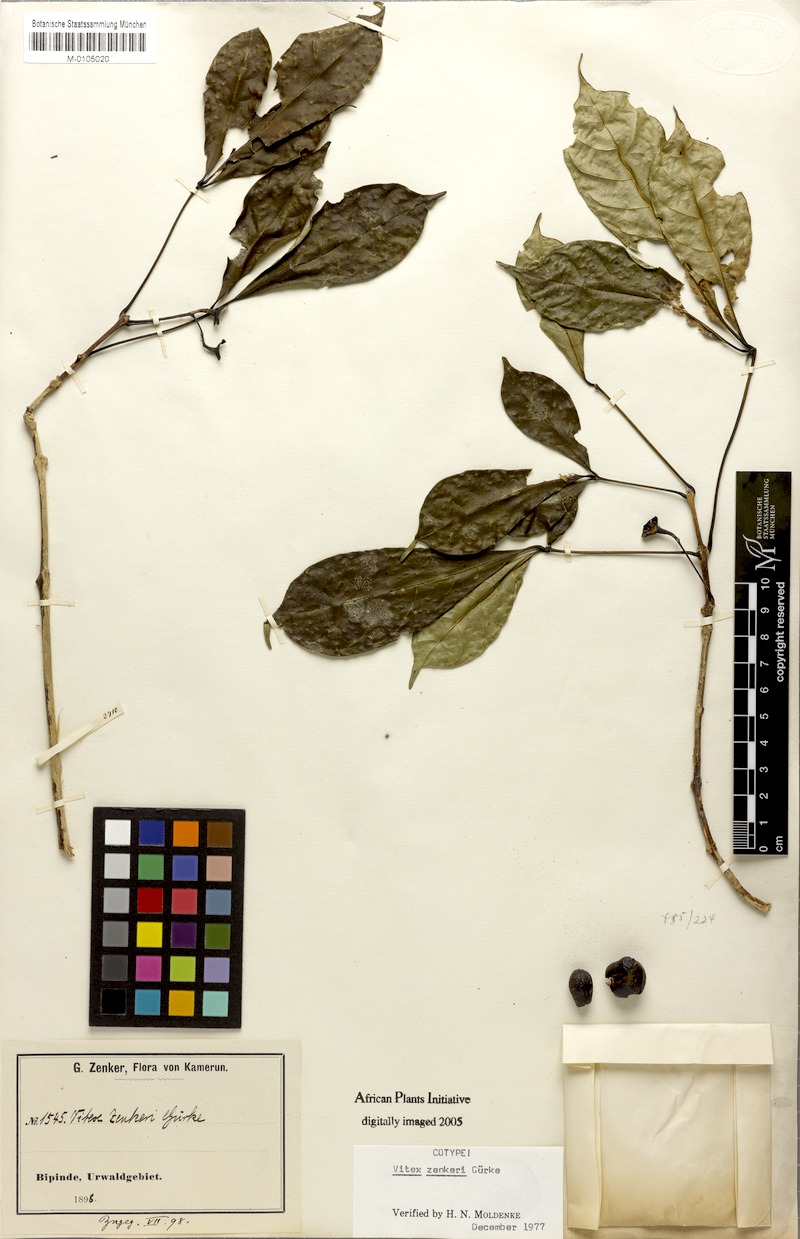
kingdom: Plantae
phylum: Tracheophyta
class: Magnoliopsida
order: Lamiales
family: Lamiaceae
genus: Vitex
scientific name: Vitex zenkeri
